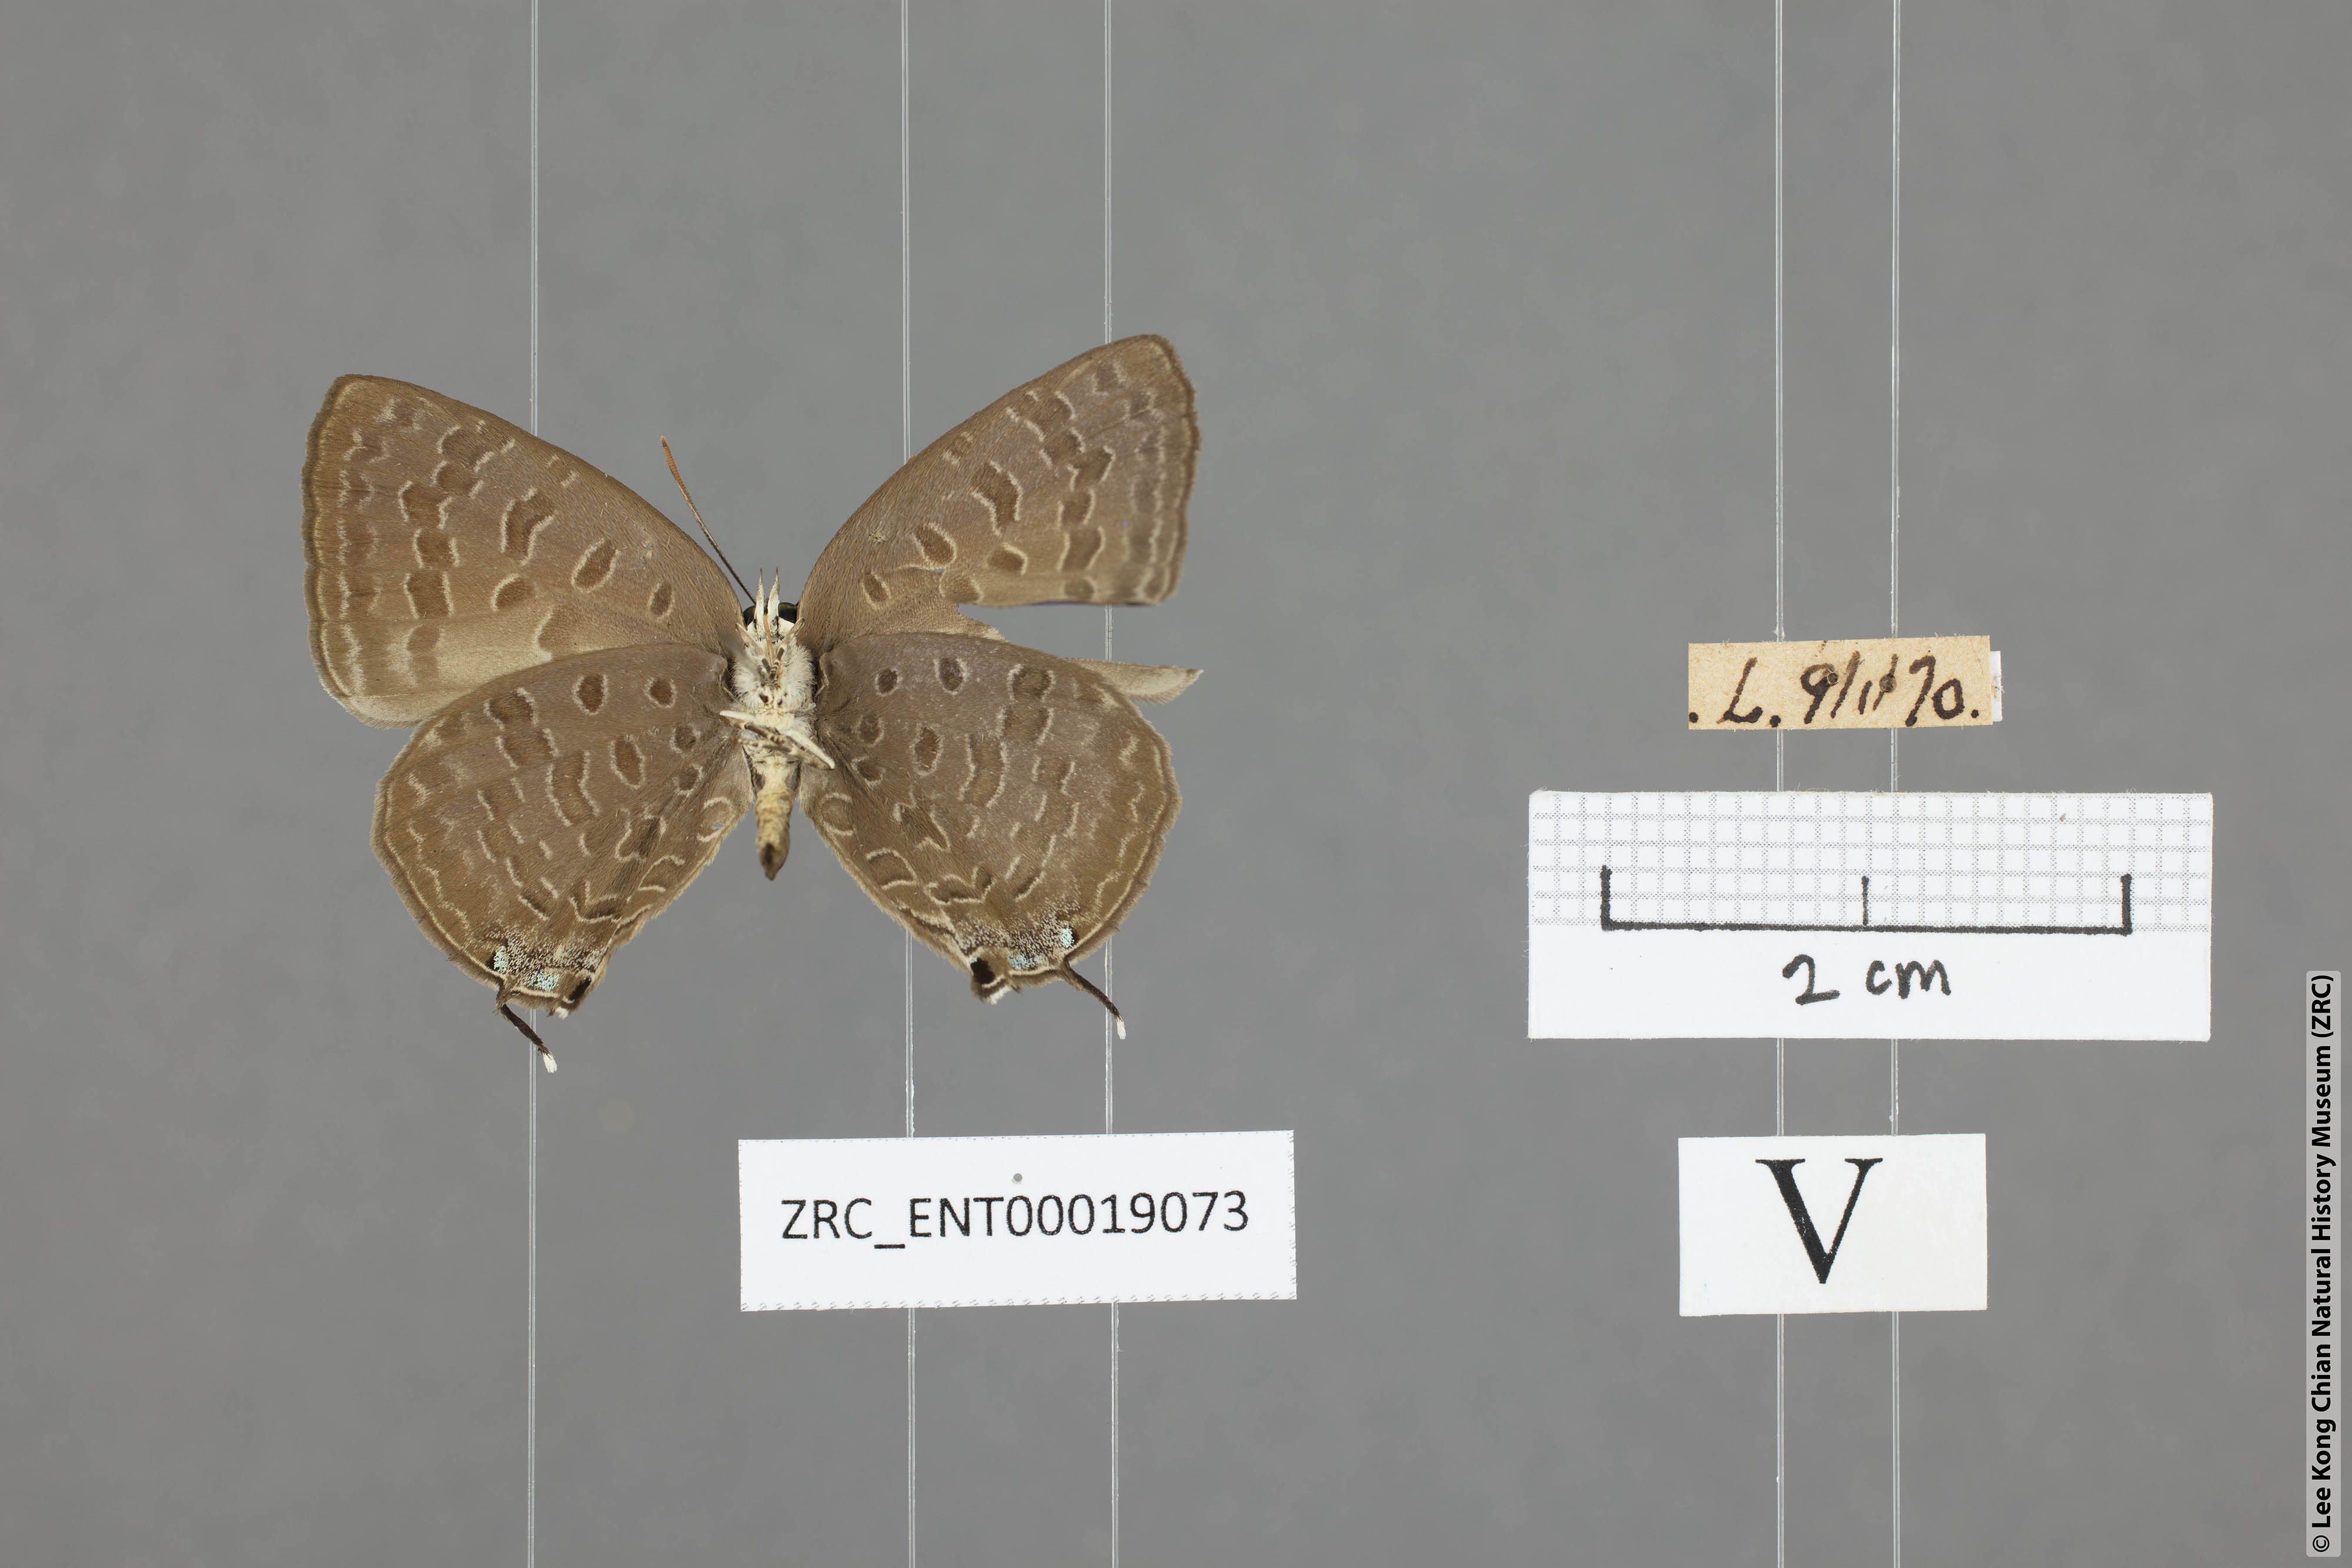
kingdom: Animalia
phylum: Arthropoda
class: Insecta
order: Lepidoptera
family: Lycaenidae
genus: Arhopala
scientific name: Arhopala aida
